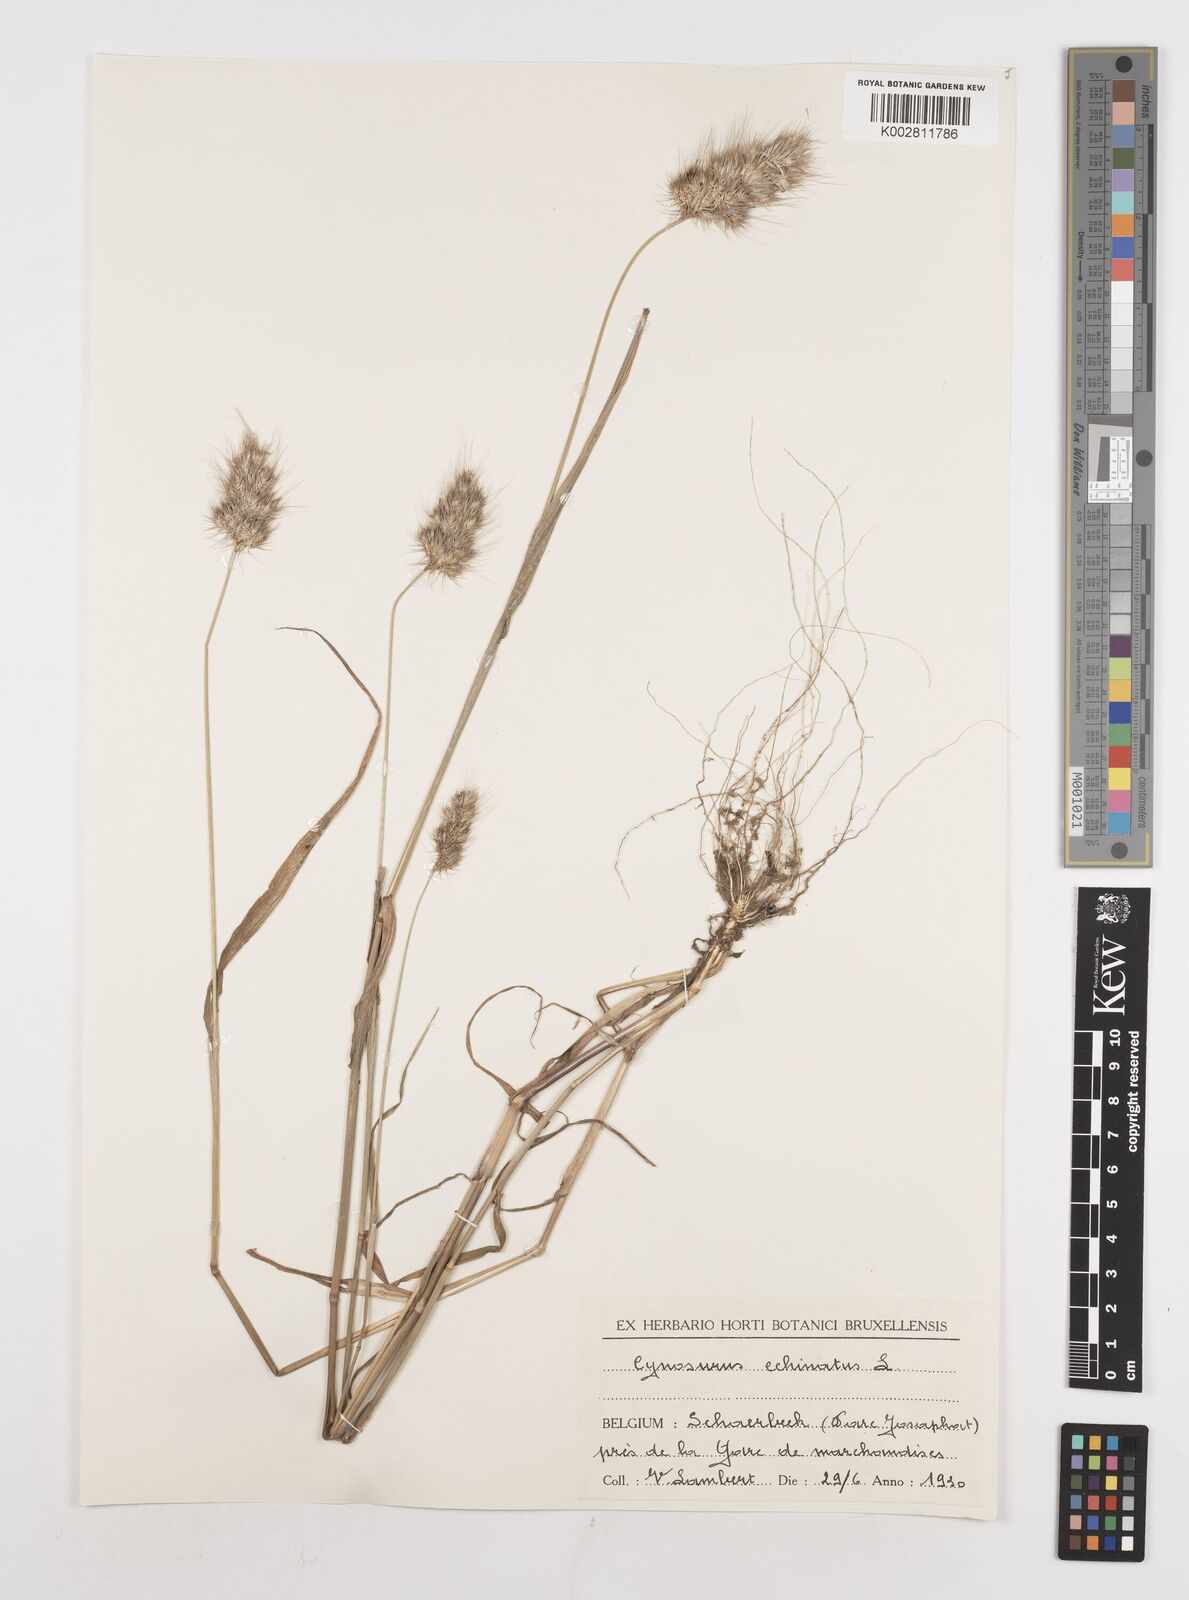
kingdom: Plantae
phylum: Tracheophyta
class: Liliopsida
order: Poales
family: Poaceae
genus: Cynosurus
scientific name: Cynosurus echinatus
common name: Rough dog's-tail
